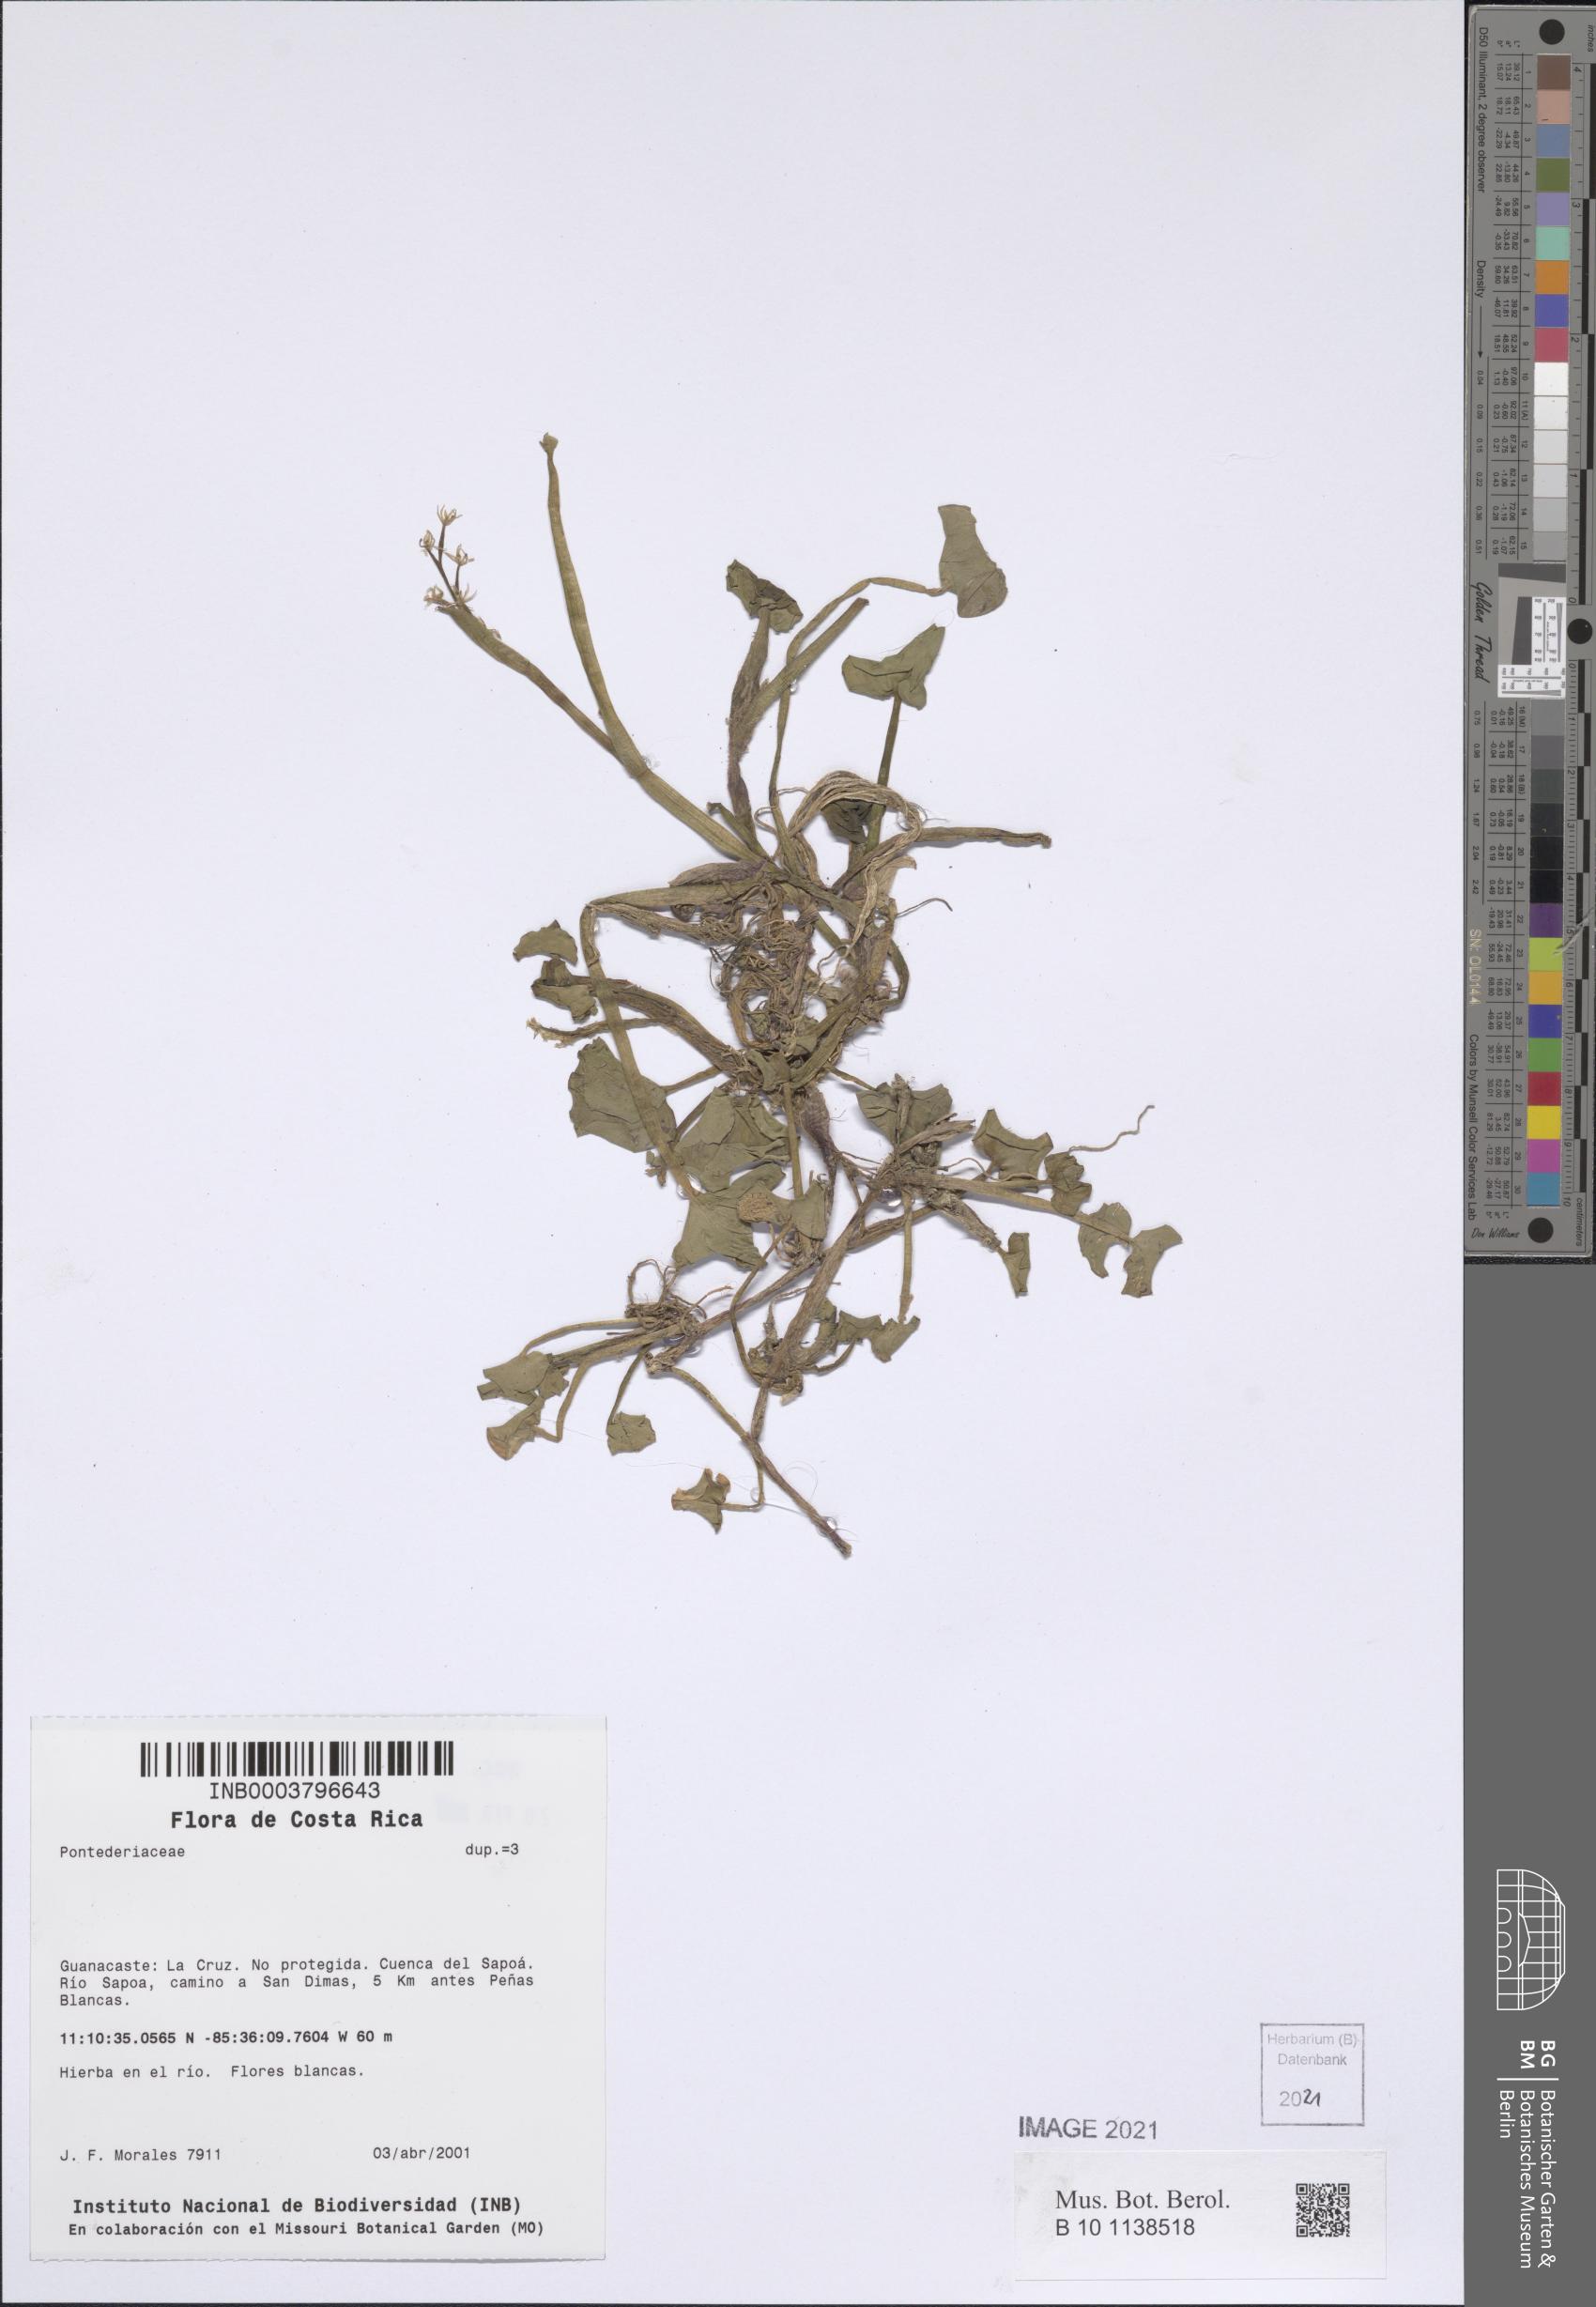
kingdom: Plantae
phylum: Tracheophyta
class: Liliopsida
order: Commelinales
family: Pontederiaceae
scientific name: Pontederiaceae
